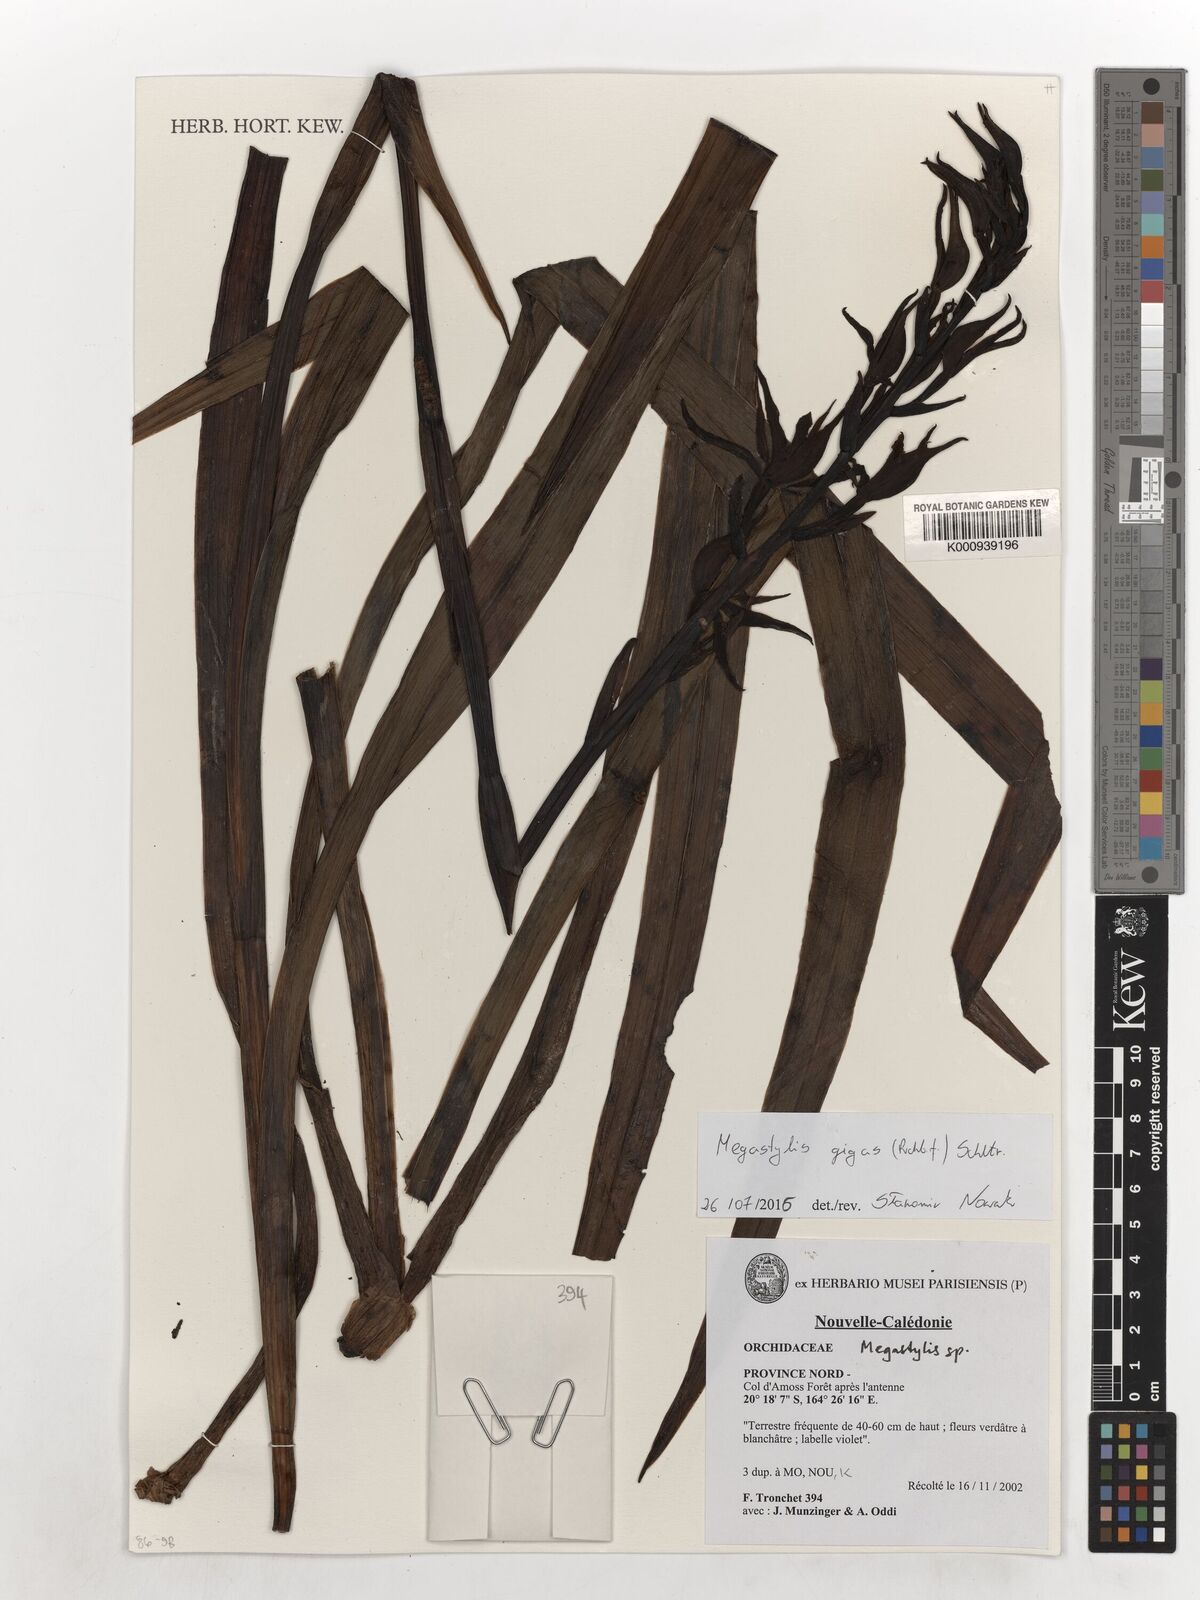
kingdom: Plantae
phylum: Tracheophyta
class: Liliopsida
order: Asparagales
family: Orchidaceae
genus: Megastylis
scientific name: Megastylis gigas
